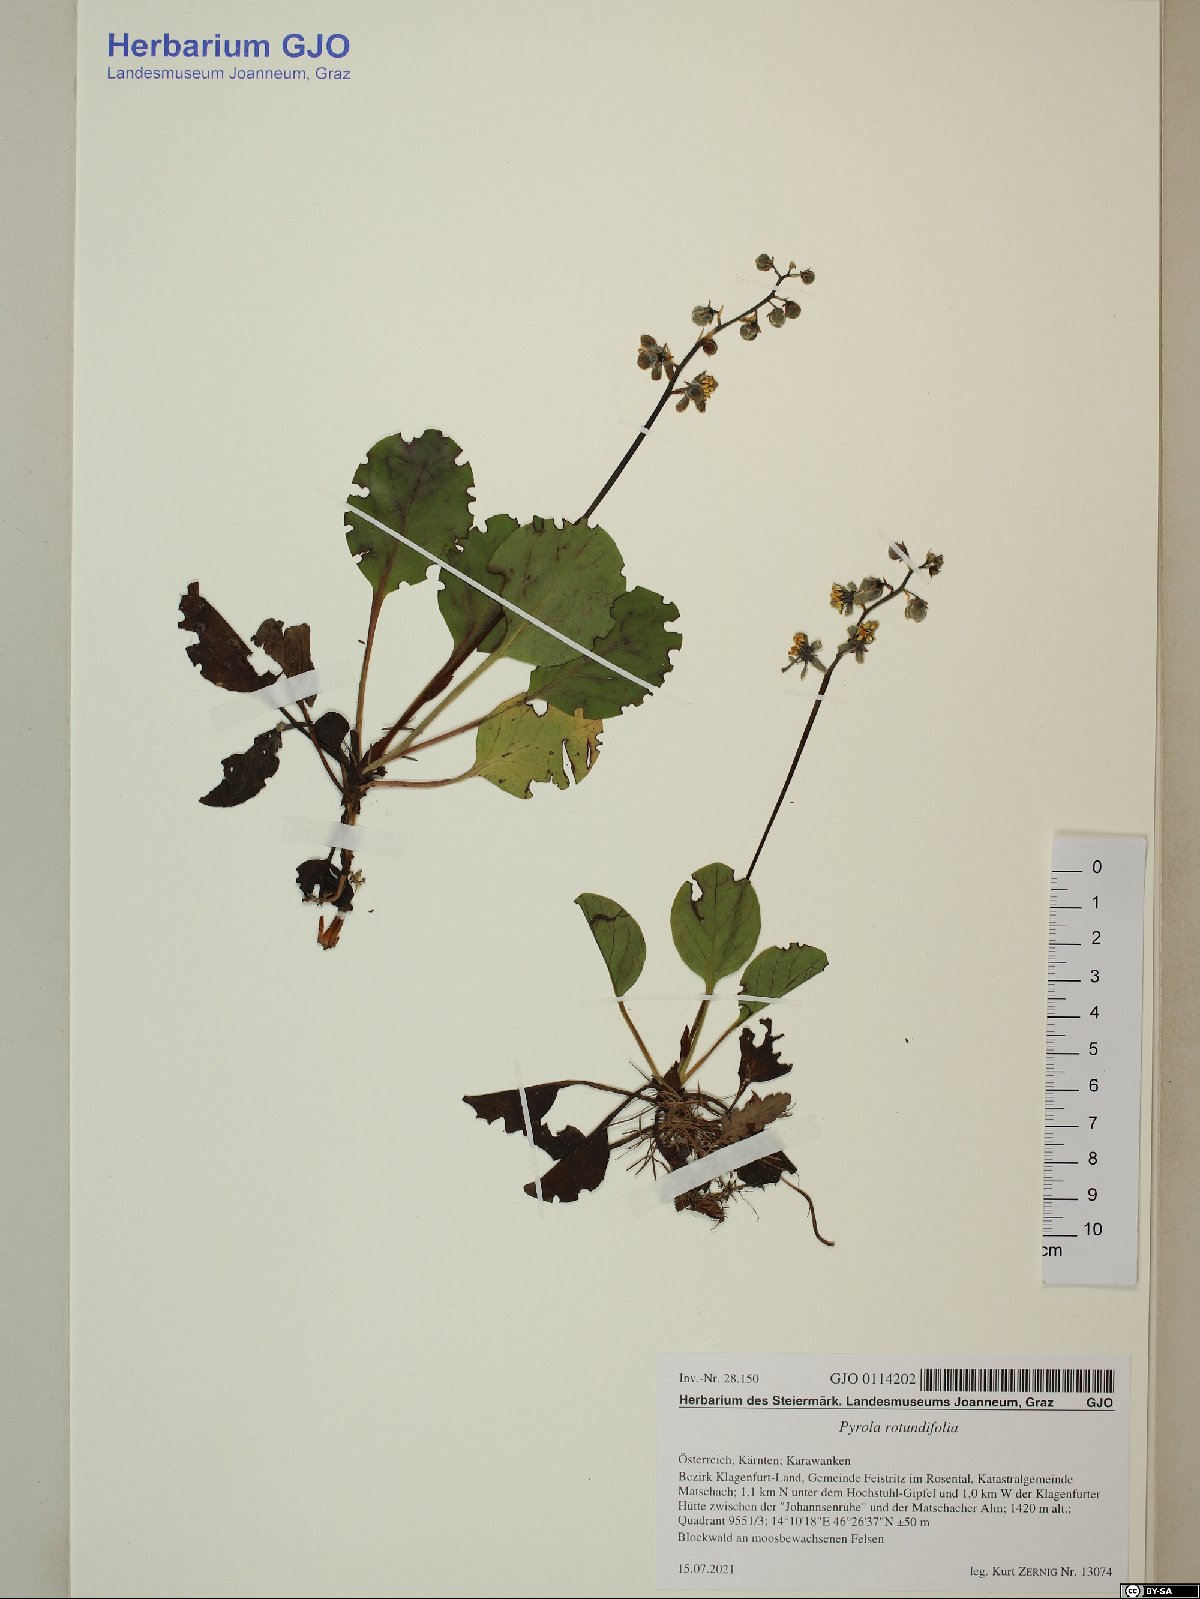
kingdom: Plantae
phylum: Tracheophyta
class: Magnoliopsida
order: Ericales
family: Ericaceae
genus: Pyrola
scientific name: Pyrola rotundifolia
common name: Round-leaved wintergreen
